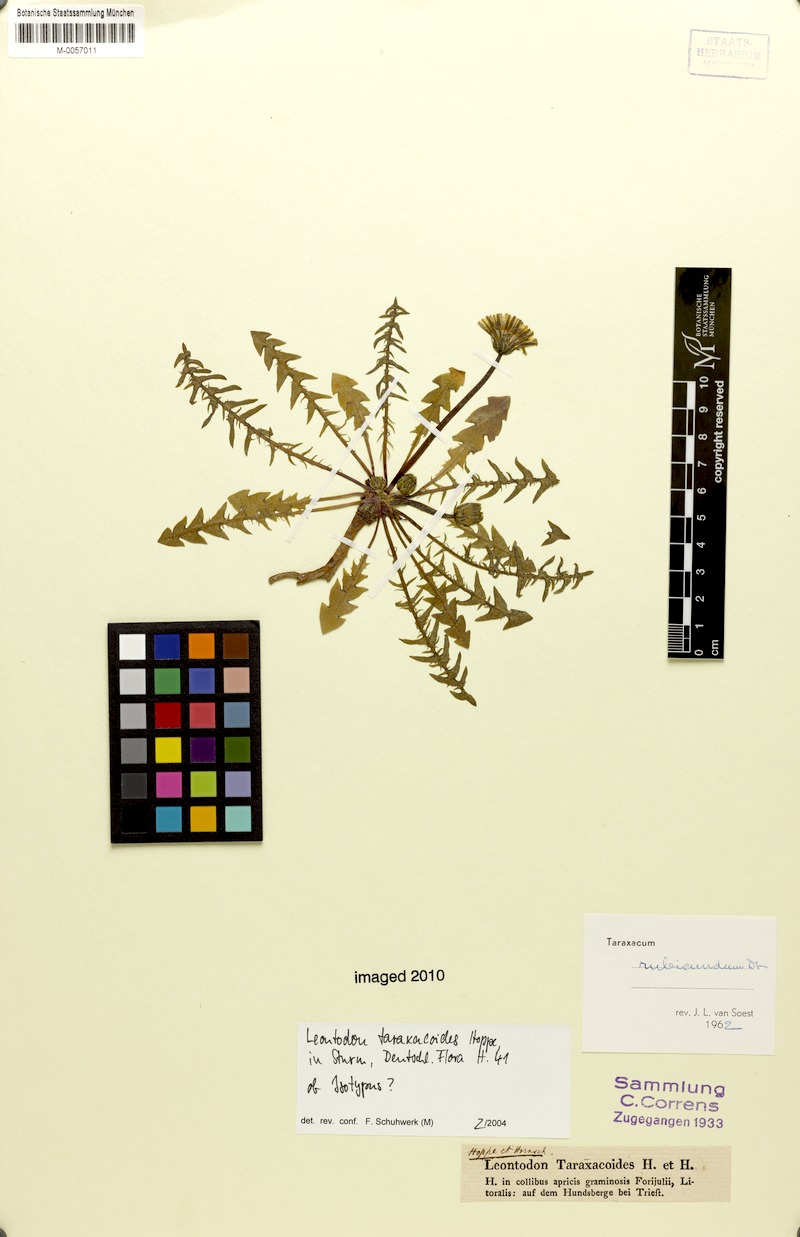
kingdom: Plantae
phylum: Tracheophyta
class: Magnoliopsida
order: Asterales
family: Asteraceae
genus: Taraxacum
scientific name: Taraxacum rubicundum
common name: Ruddy dandelion
